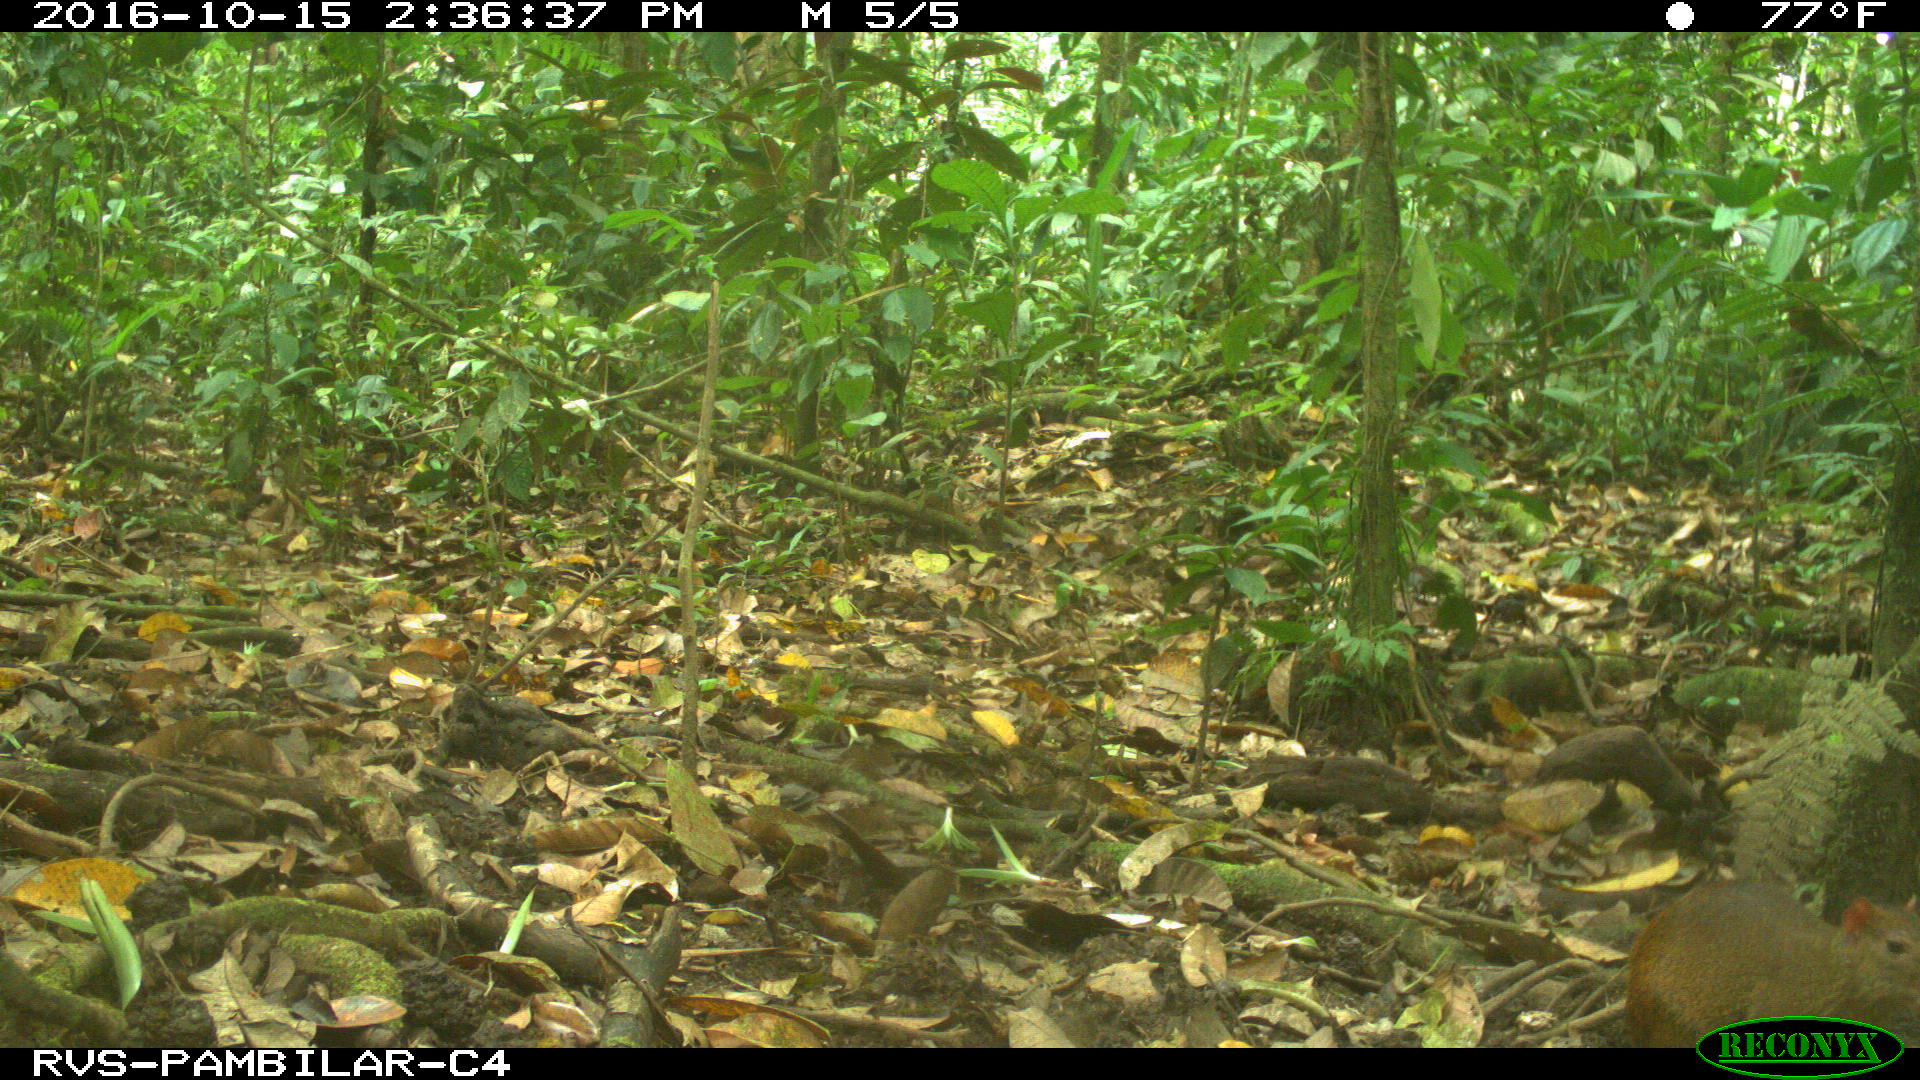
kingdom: Animalia
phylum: Chordata
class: Mammalia
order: Rodentia
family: Dasyproctidae
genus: Dasyprocta
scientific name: Dasyprocta punctata
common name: Central american agouti
